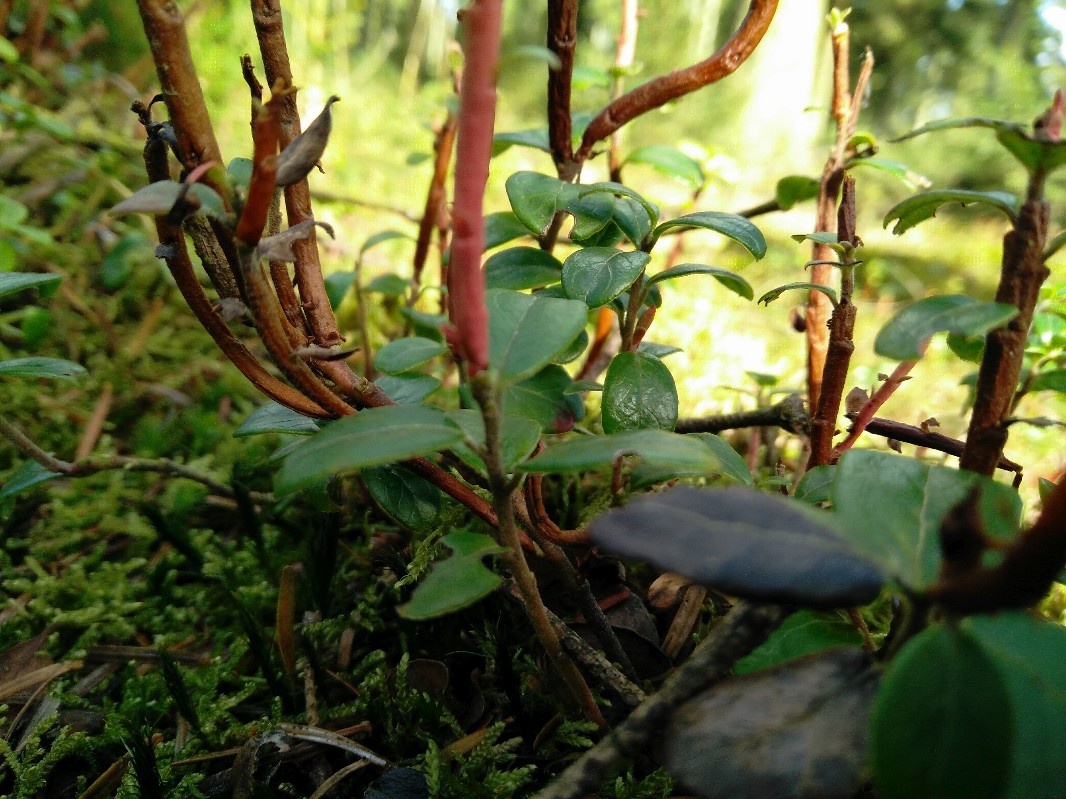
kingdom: Fungi
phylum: Basidiomycota
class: Pucciniomycetes
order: Pucciniales
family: Pucciniastraceae
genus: Calyptospora
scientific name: Calyptospora columnaris
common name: Huckleberry broom rust fungus
